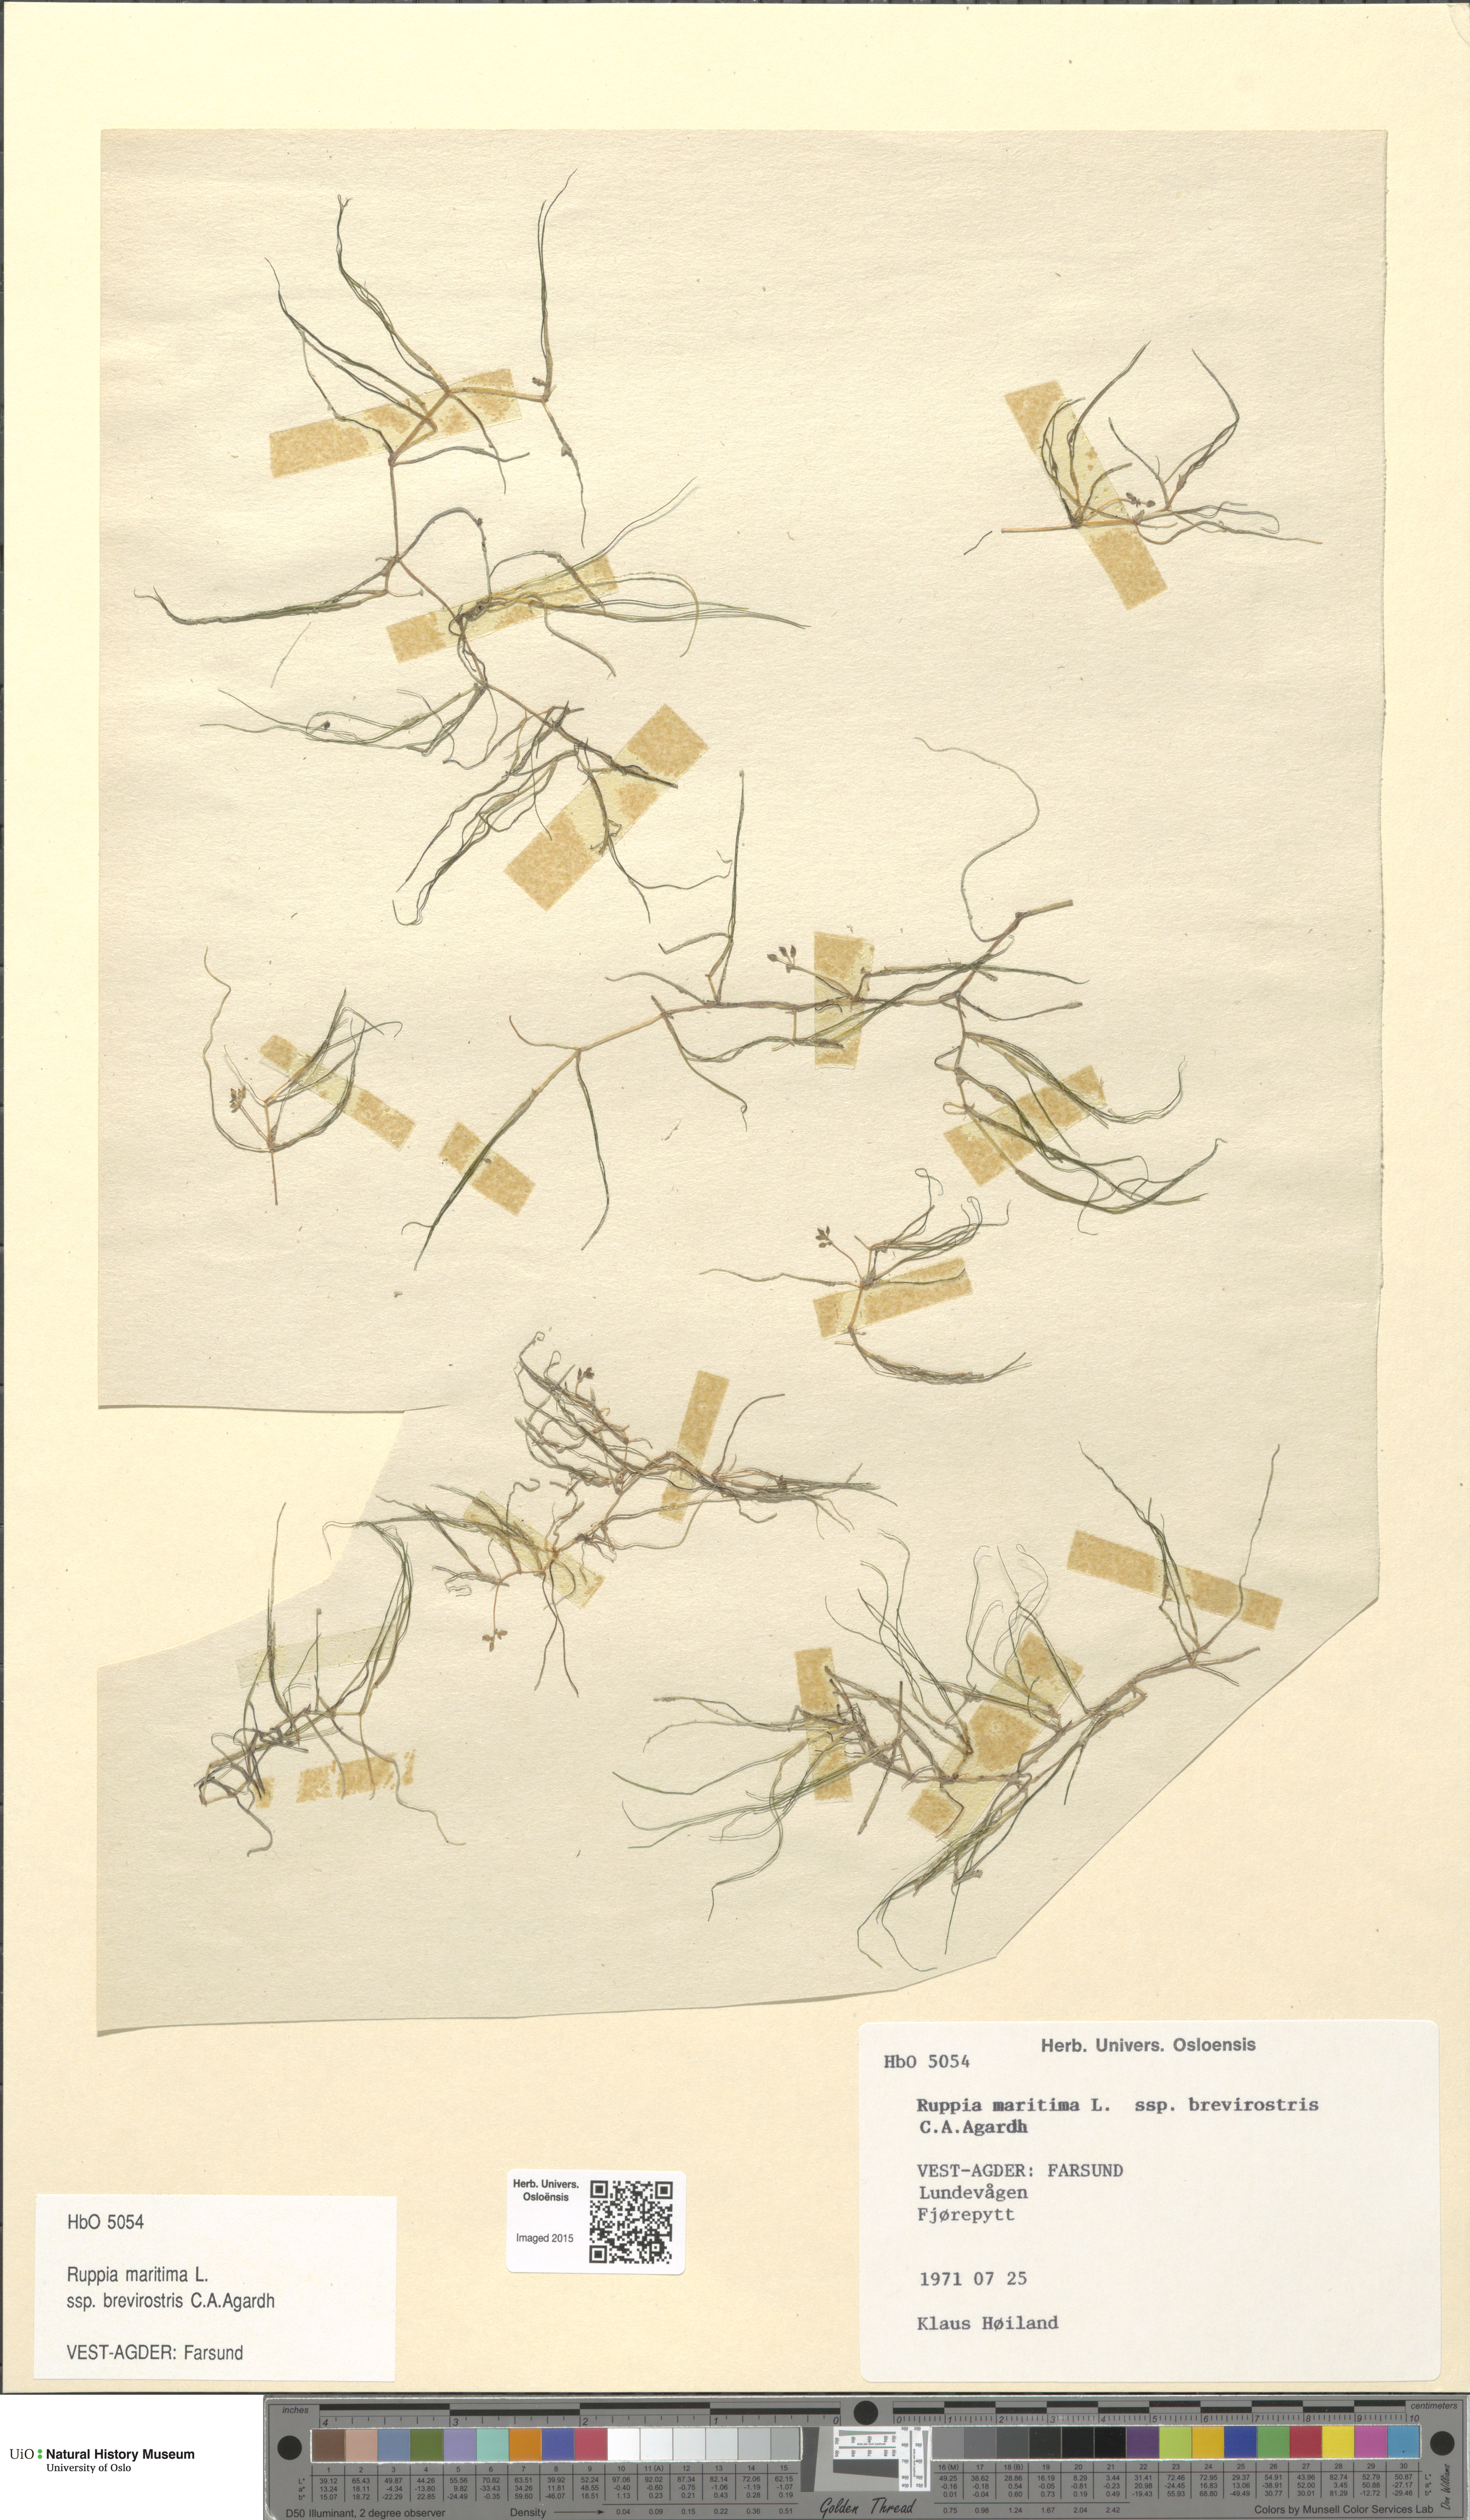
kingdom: Plantae
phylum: Tracheophyta
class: Liliopsida
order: Alismatales
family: Ruppiaceae
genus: Ruppia
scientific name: Ruppia maritima
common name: Beaked tasselweed
